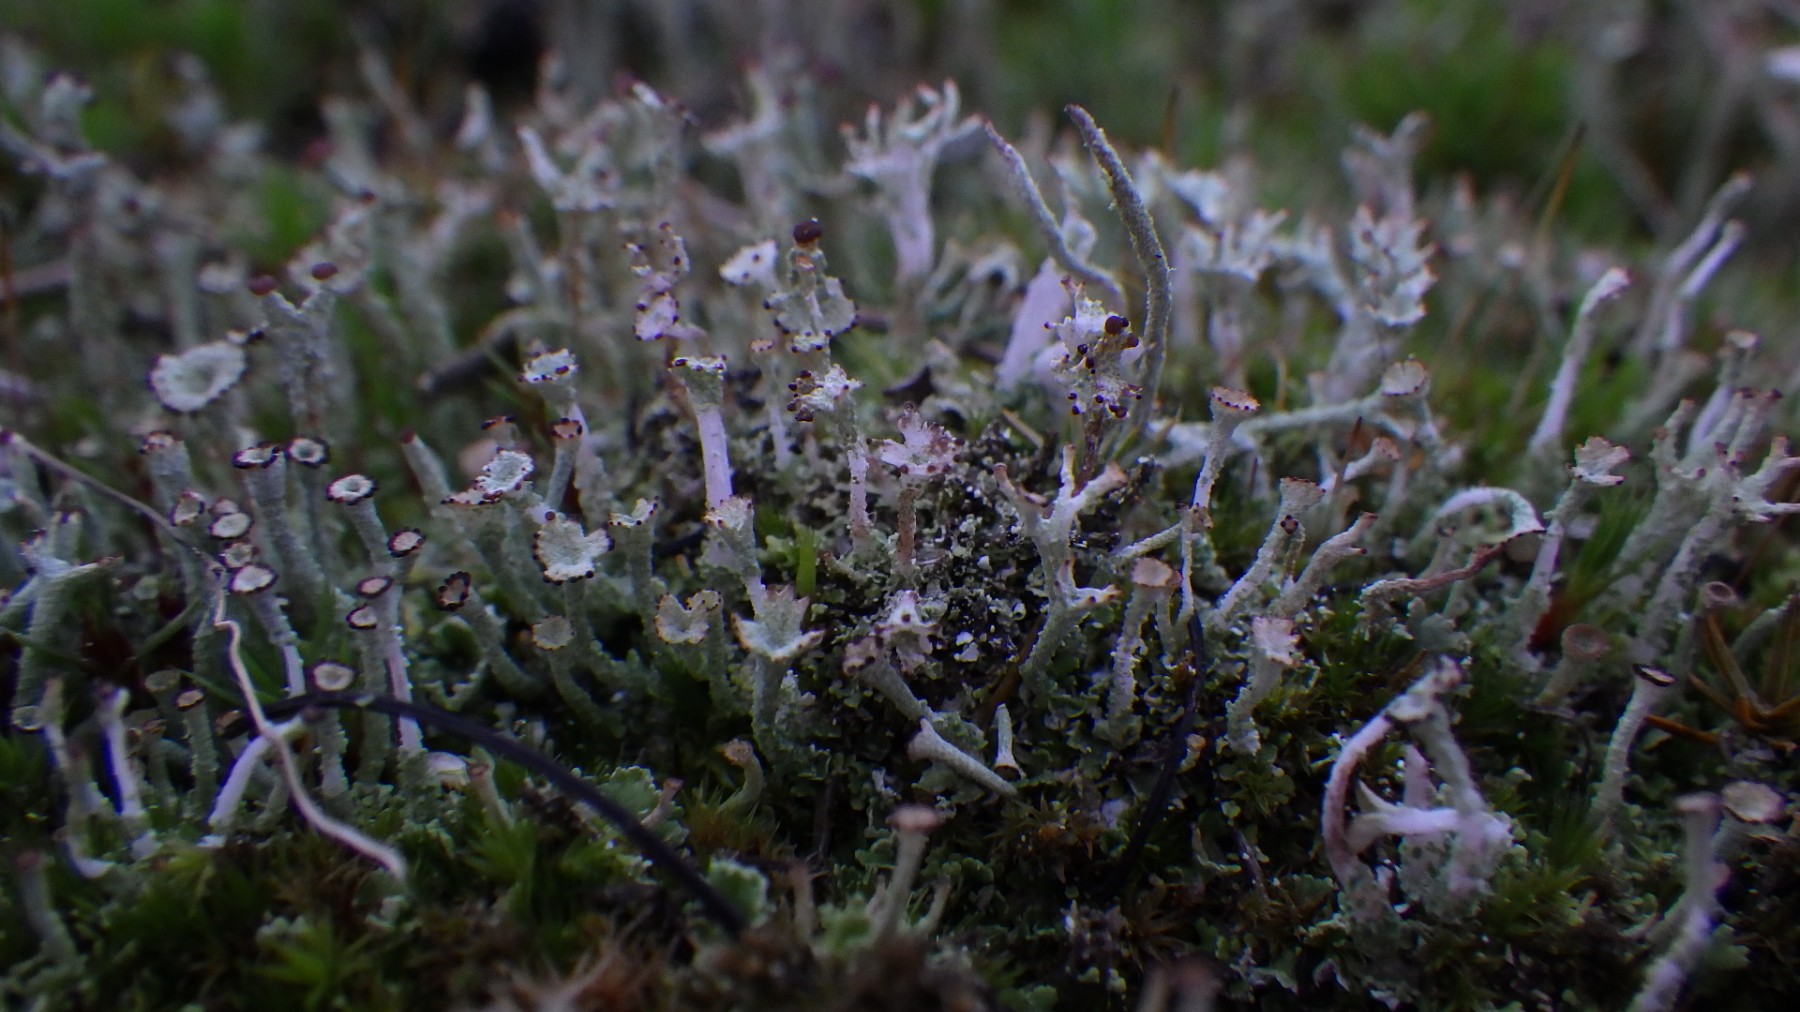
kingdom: Fungi
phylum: Ascomycota
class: Lecanoromycetes
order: Lecanorales
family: Cladoniaceae
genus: Cladonia
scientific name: Cladonia cervicornis
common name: gevir-bægerlav
